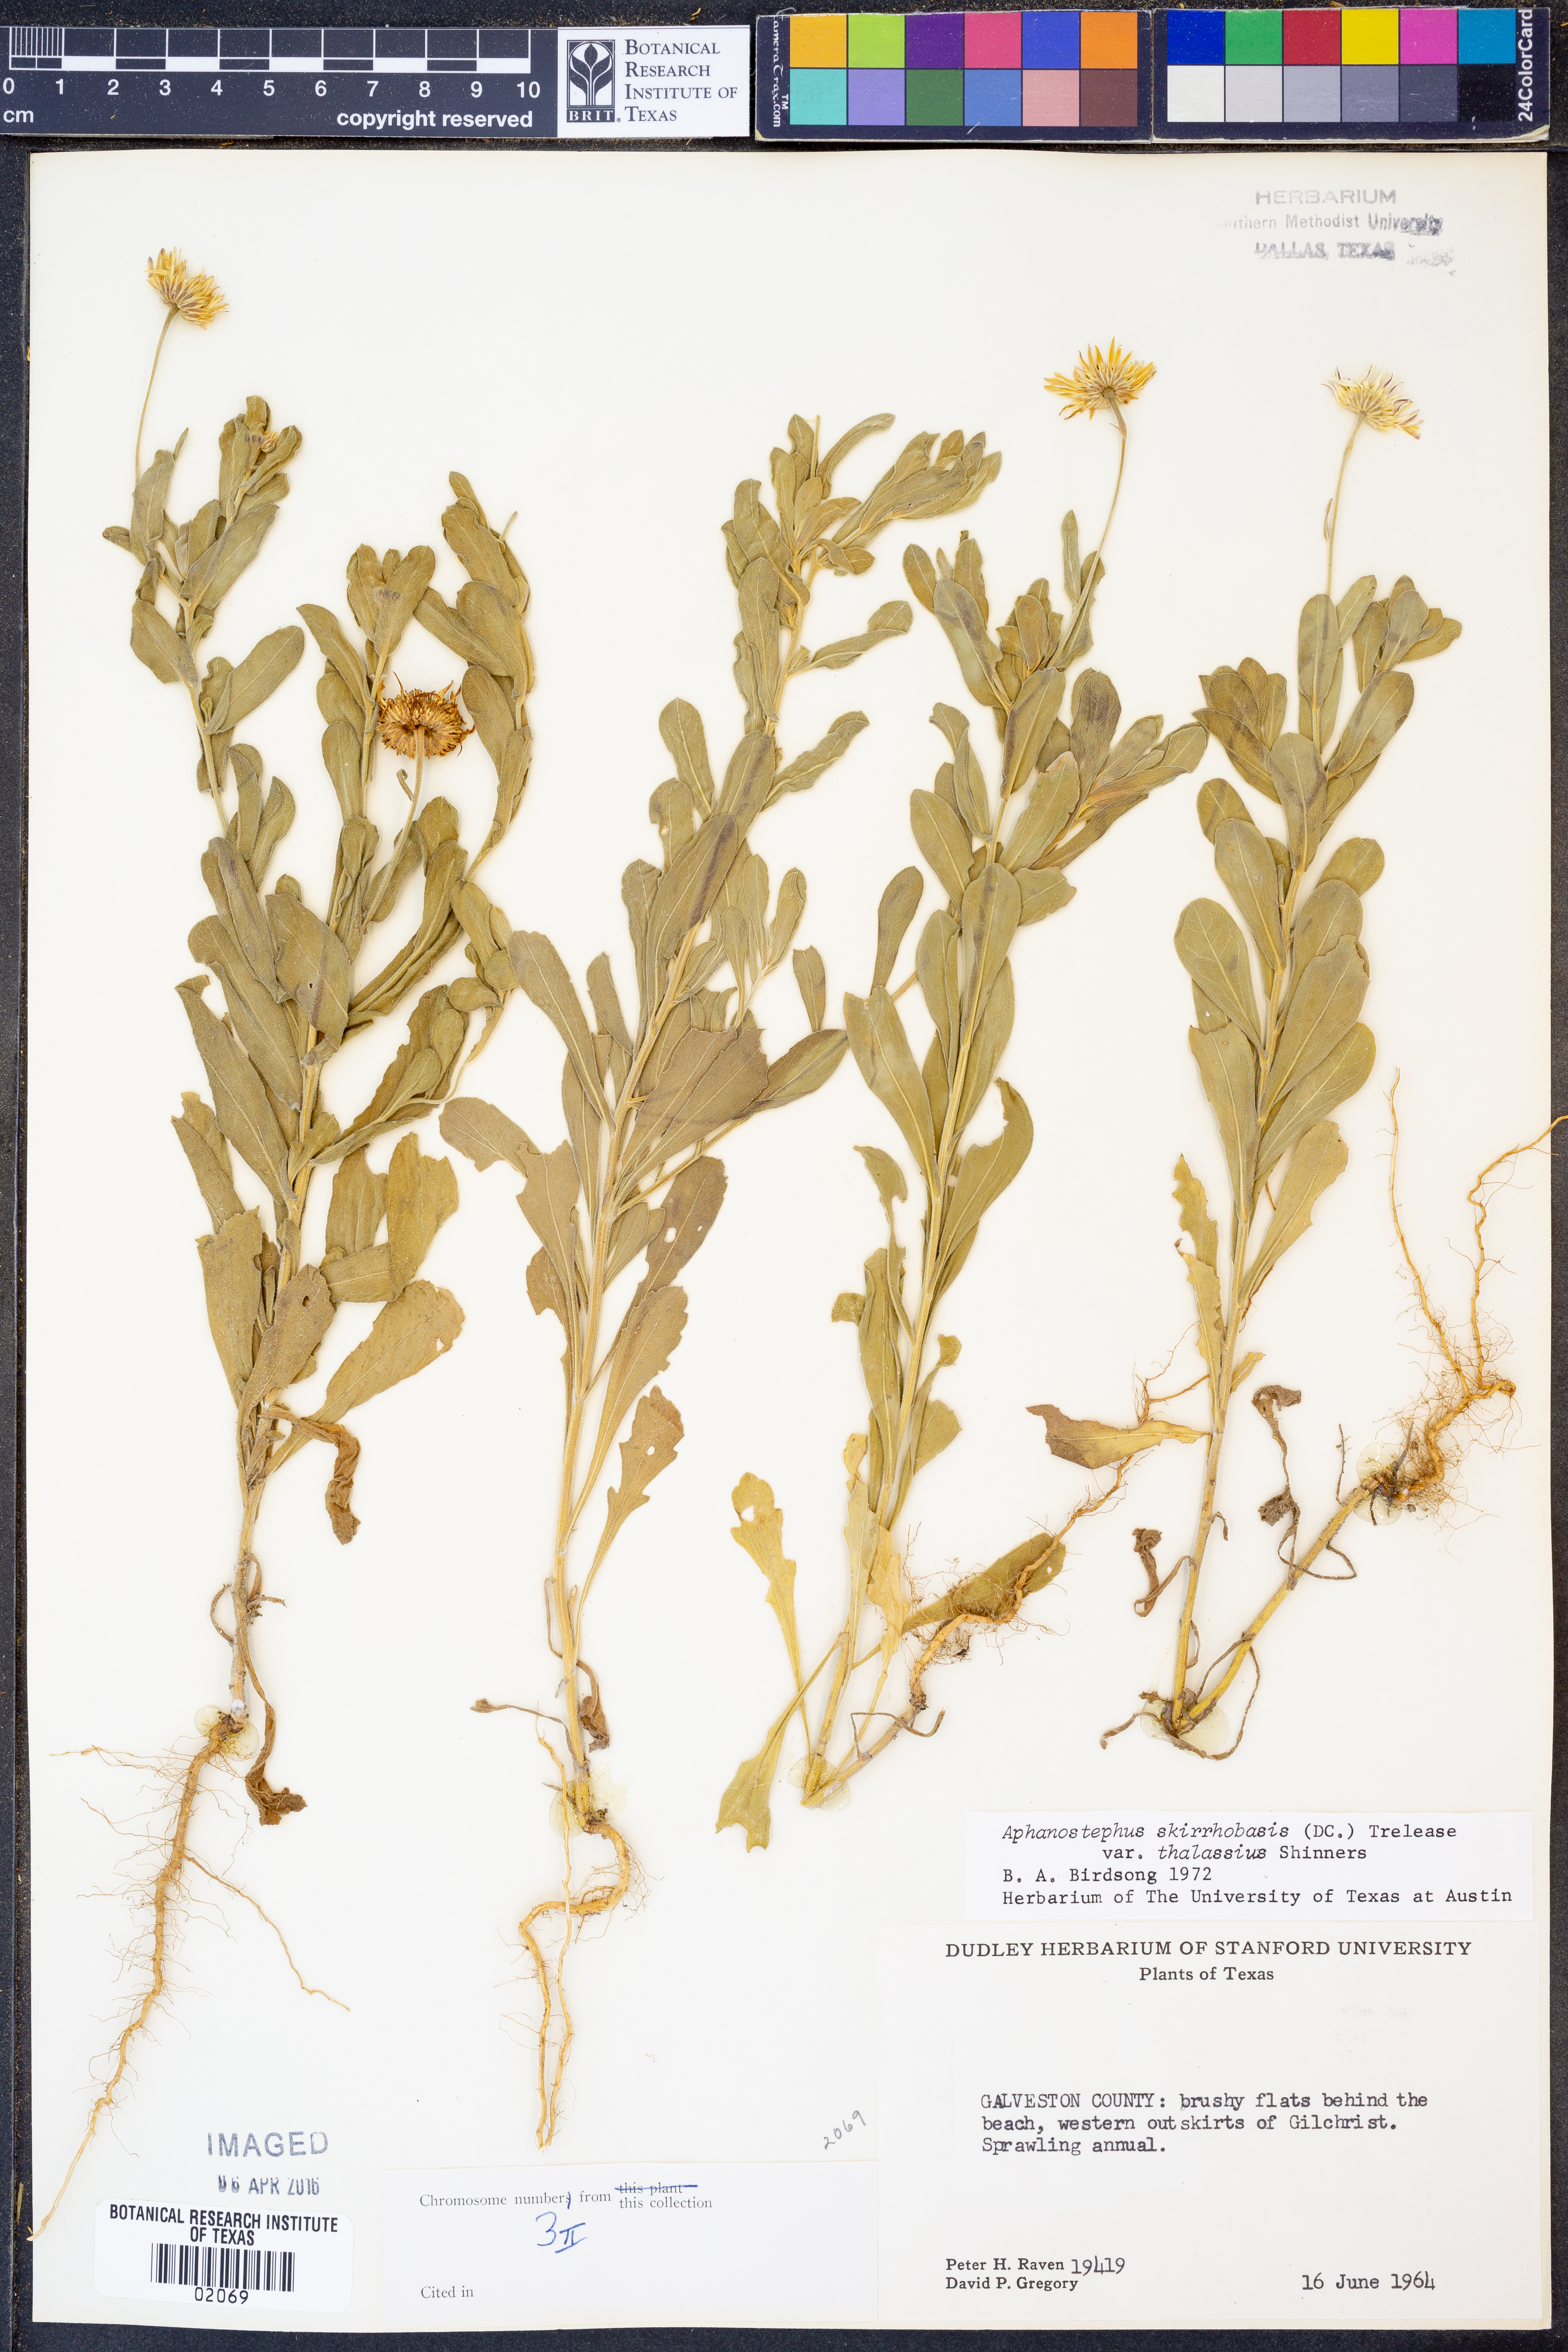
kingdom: Plantae
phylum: Tracheophyta
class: Magnoliopsida
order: Asterales
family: Asteraceae
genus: Aphanostephus
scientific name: Aphanostephus skirrhobasis
